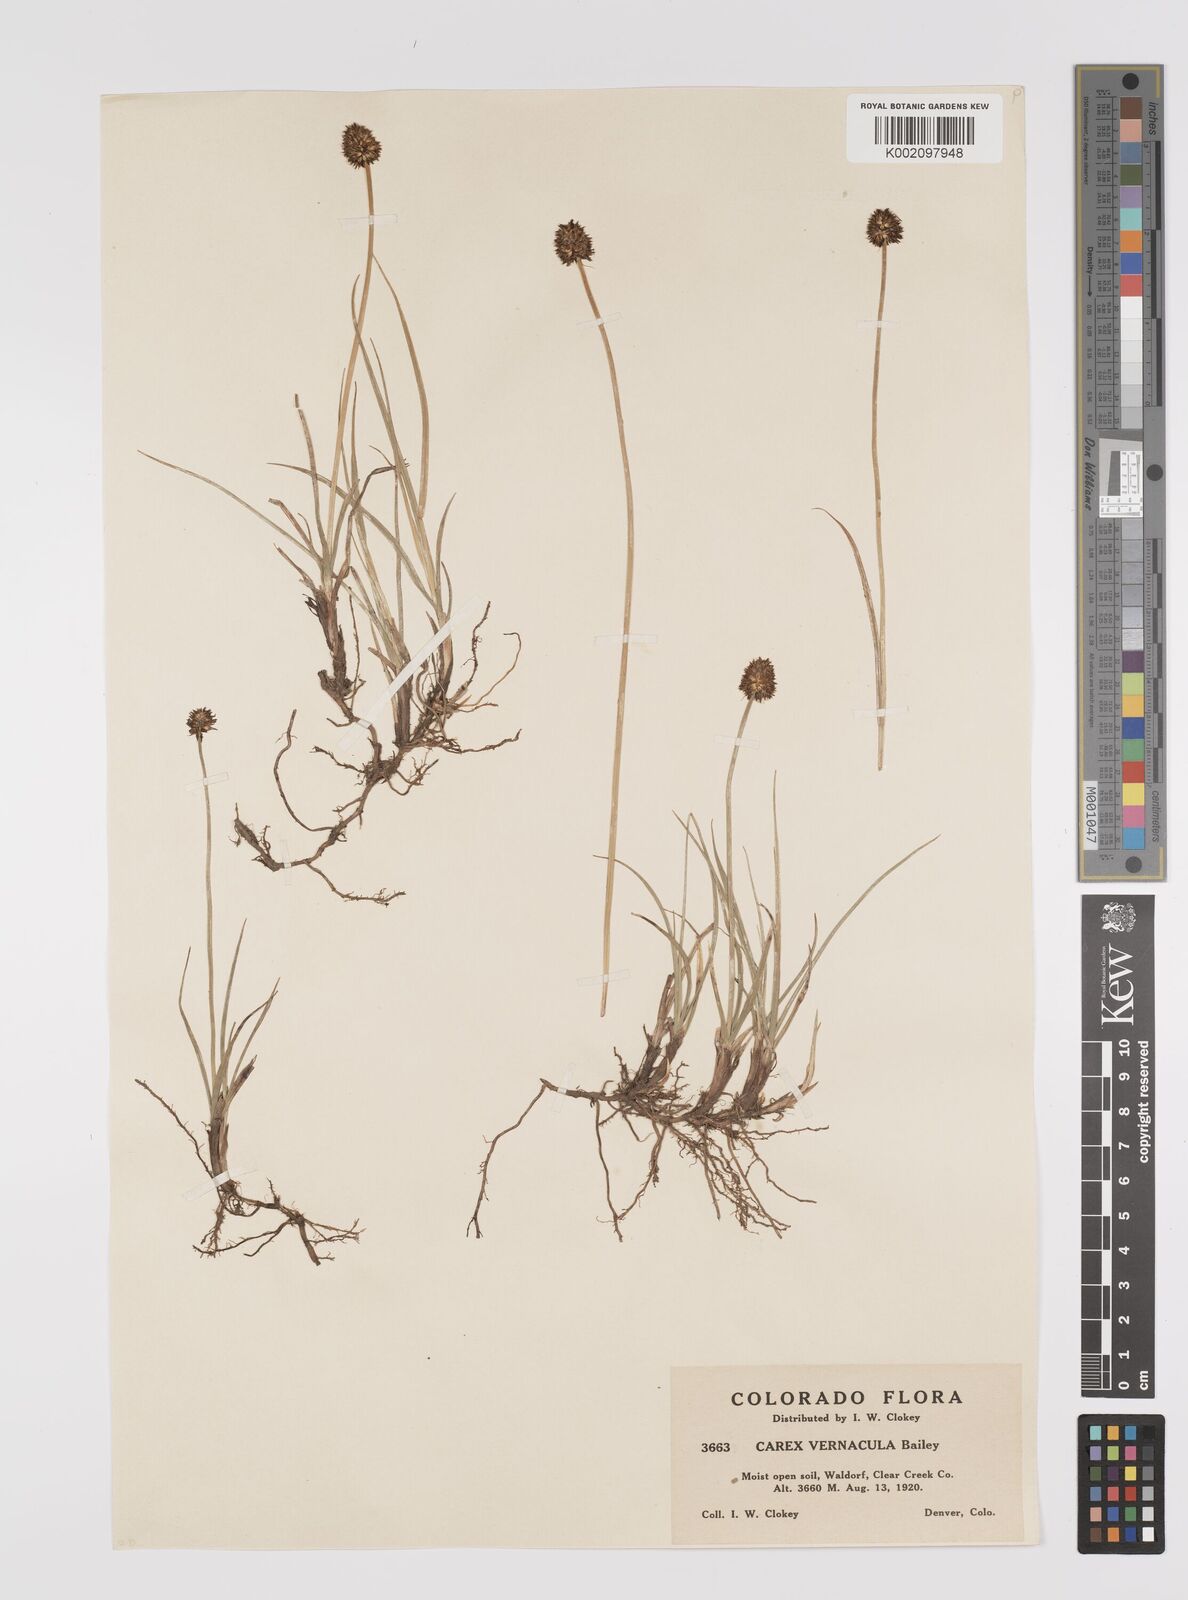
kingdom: Plantae
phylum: Tracheophyta
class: Liliopsida
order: Poales
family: Cyperaceae
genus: Carex
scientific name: Carex vernacula
